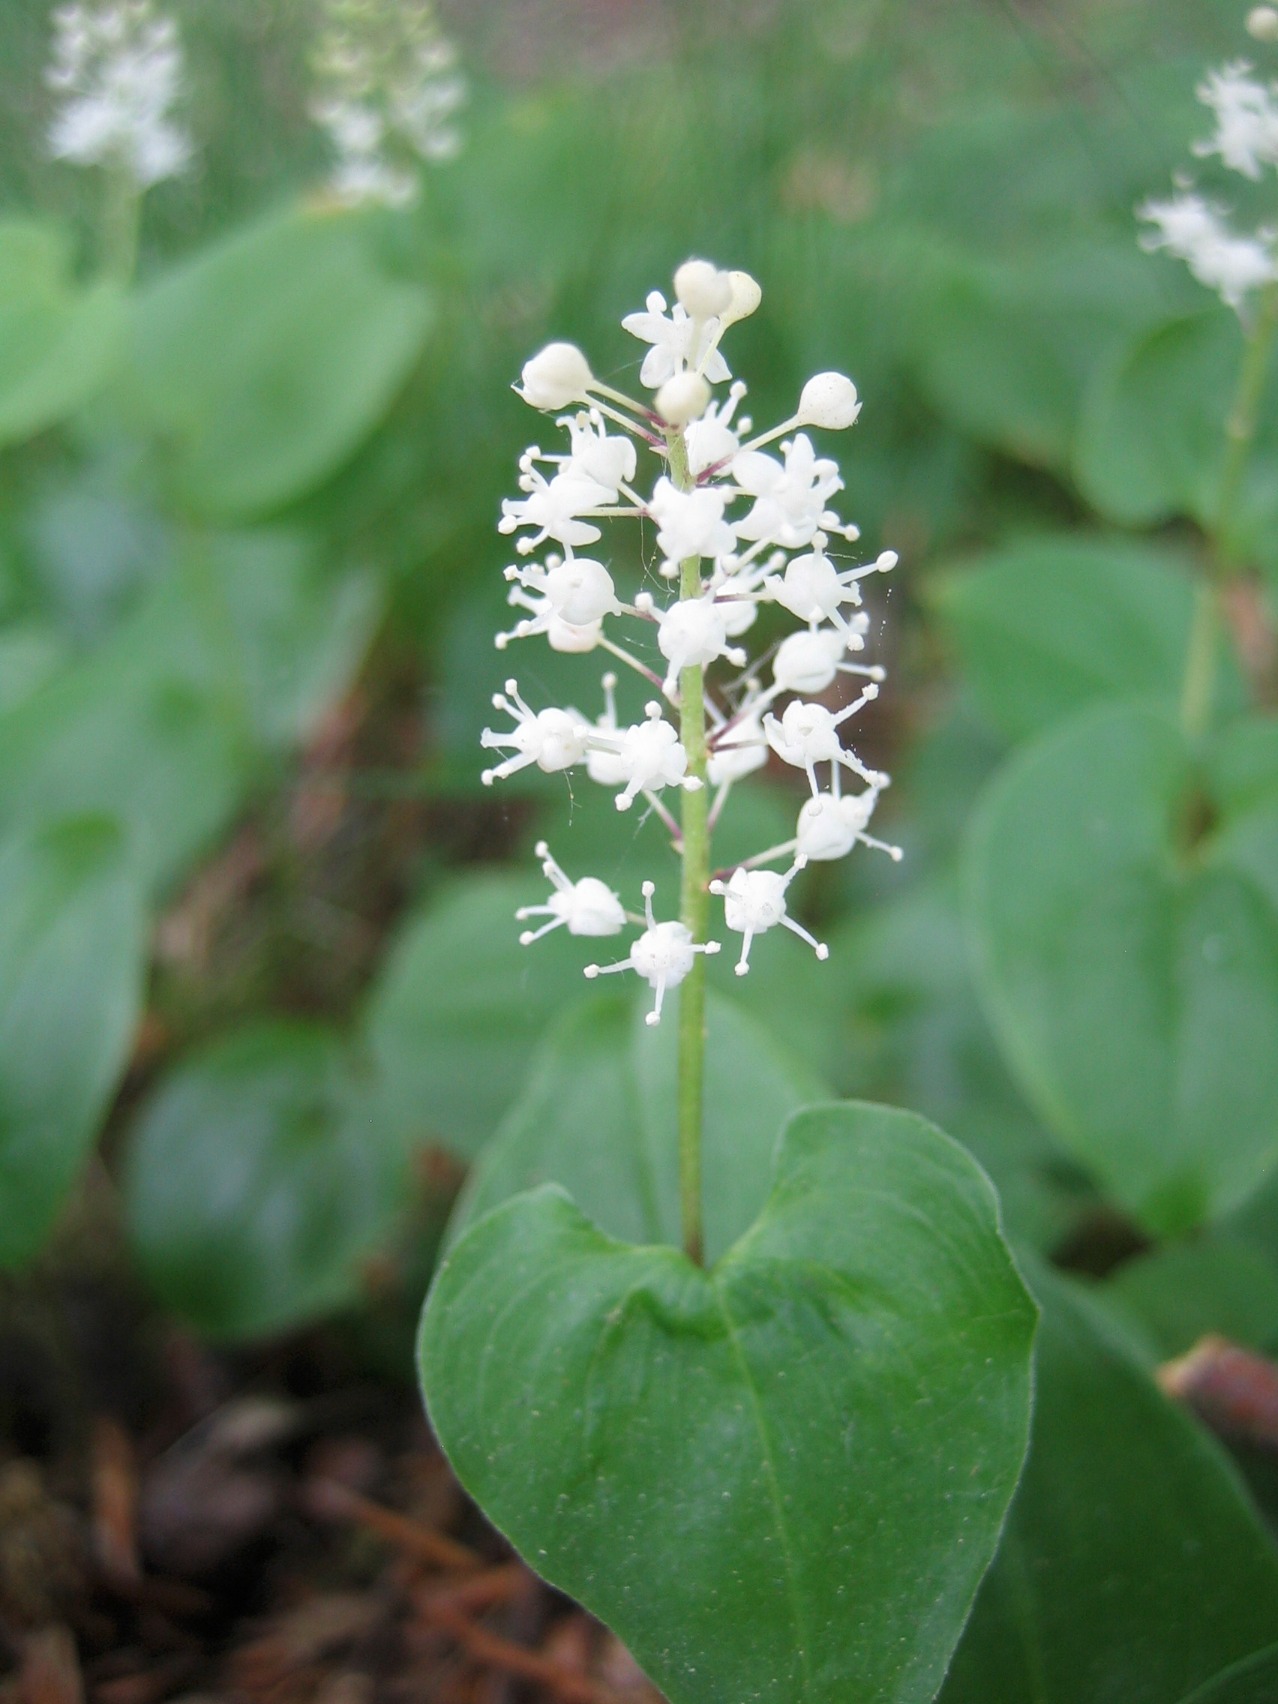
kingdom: Plantae
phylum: Tracheophyta
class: Liliopsida
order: Asparagales
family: Asparagaceae
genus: Maianthemum
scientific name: Maianthemum bifolium
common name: Majblomst
